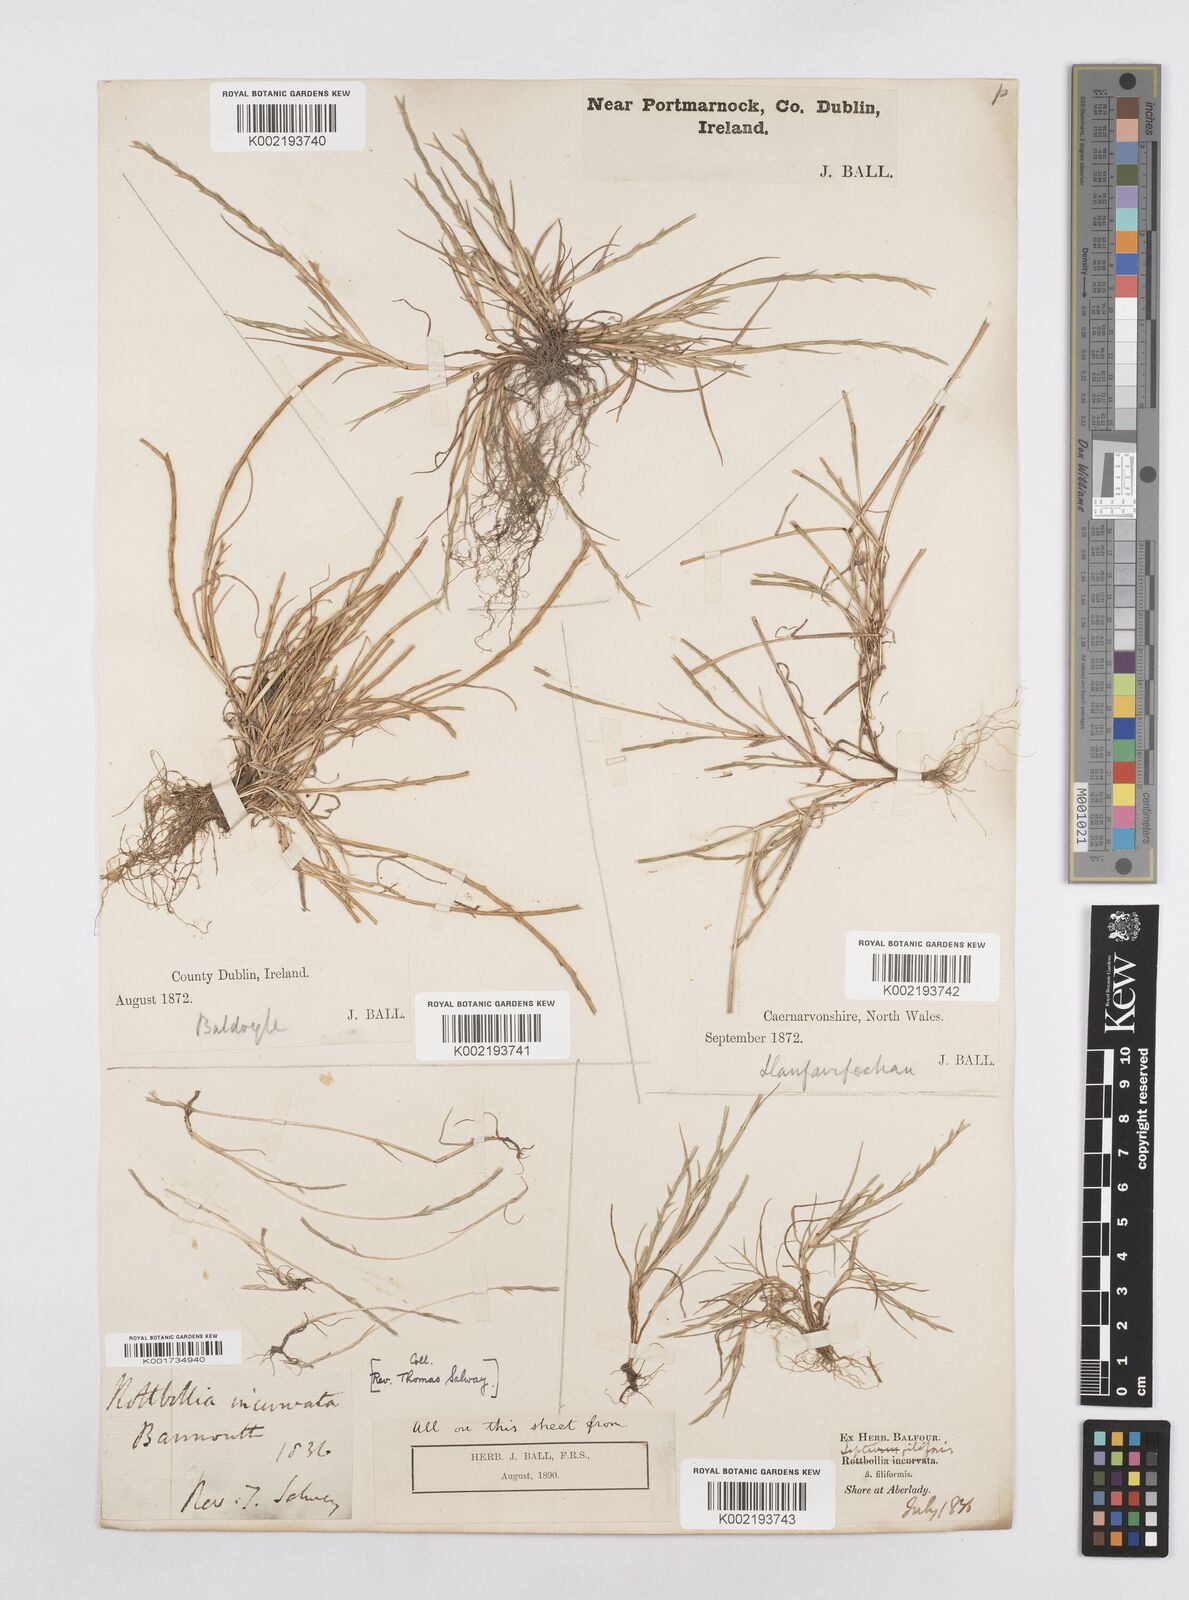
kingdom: Plantae
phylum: Tracheophyta
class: Liliopsida
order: Poales
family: Poaceae
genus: Parapholis
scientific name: Parapholis strigosa
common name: Hard-grass
